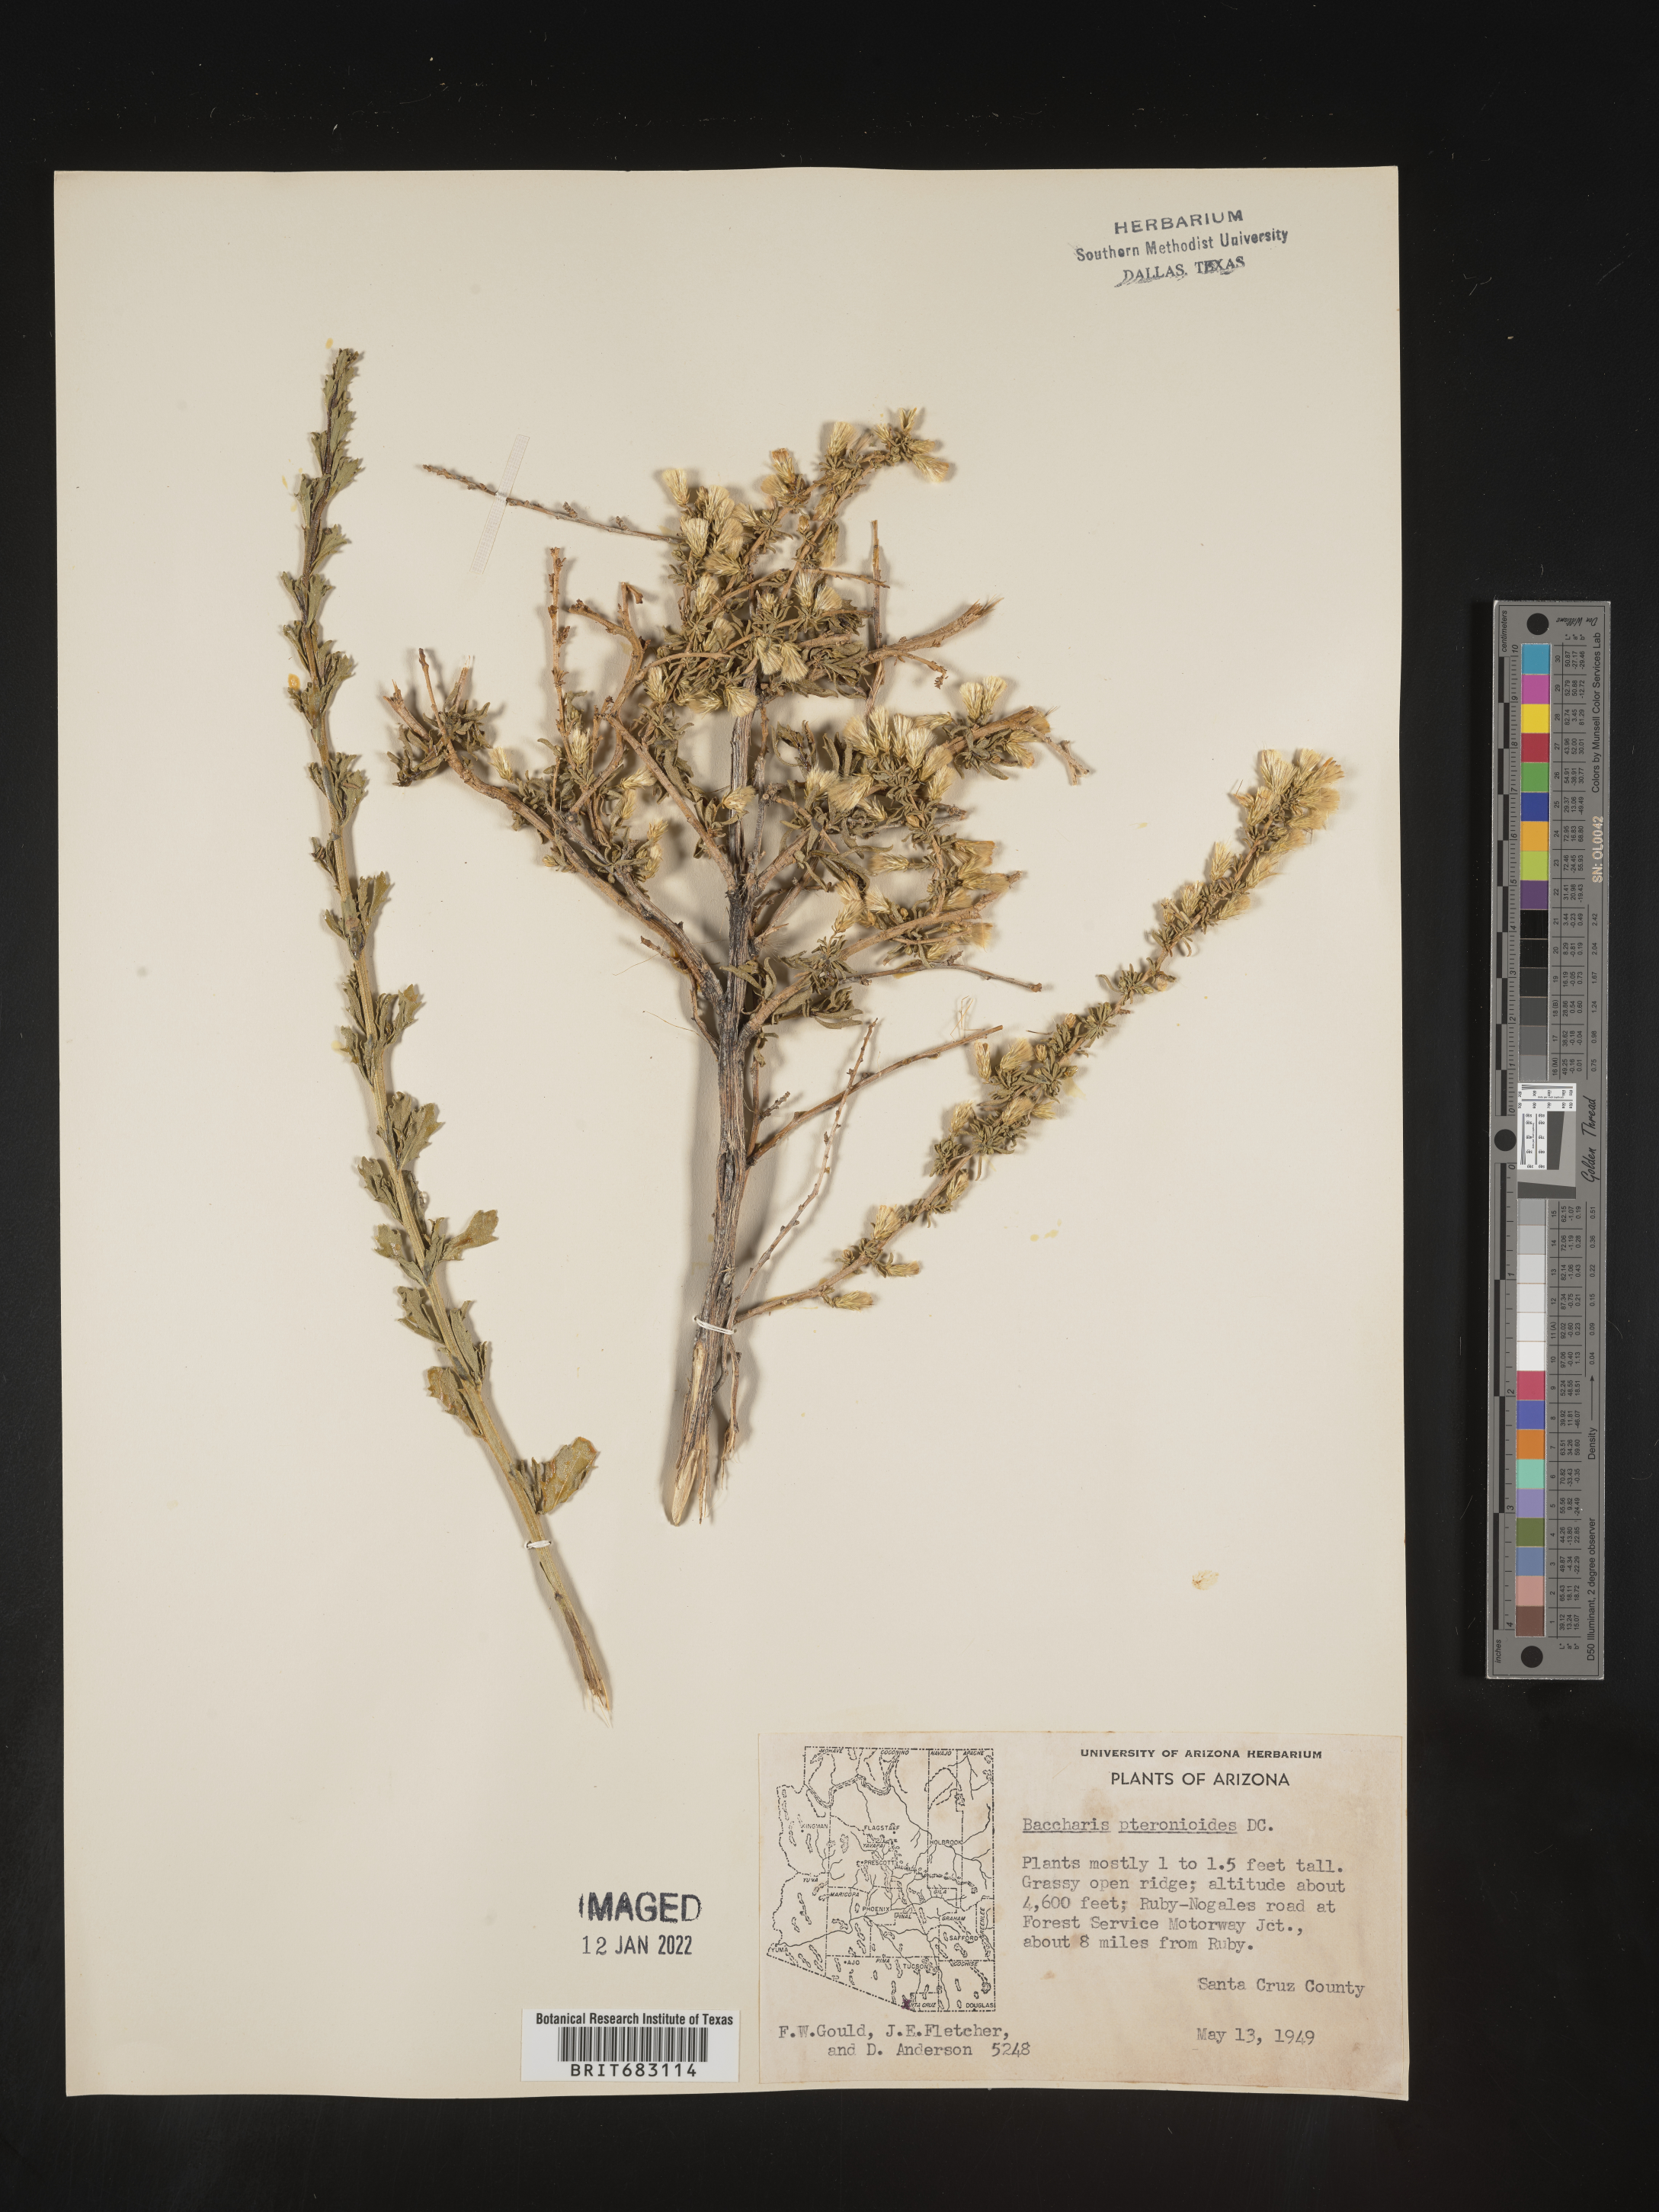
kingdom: Plantae
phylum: Tracheophyta
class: Magnoliopsida
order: Asterales
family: Asteraceae
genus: Baccharis
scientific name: Baccharis pteronioides
